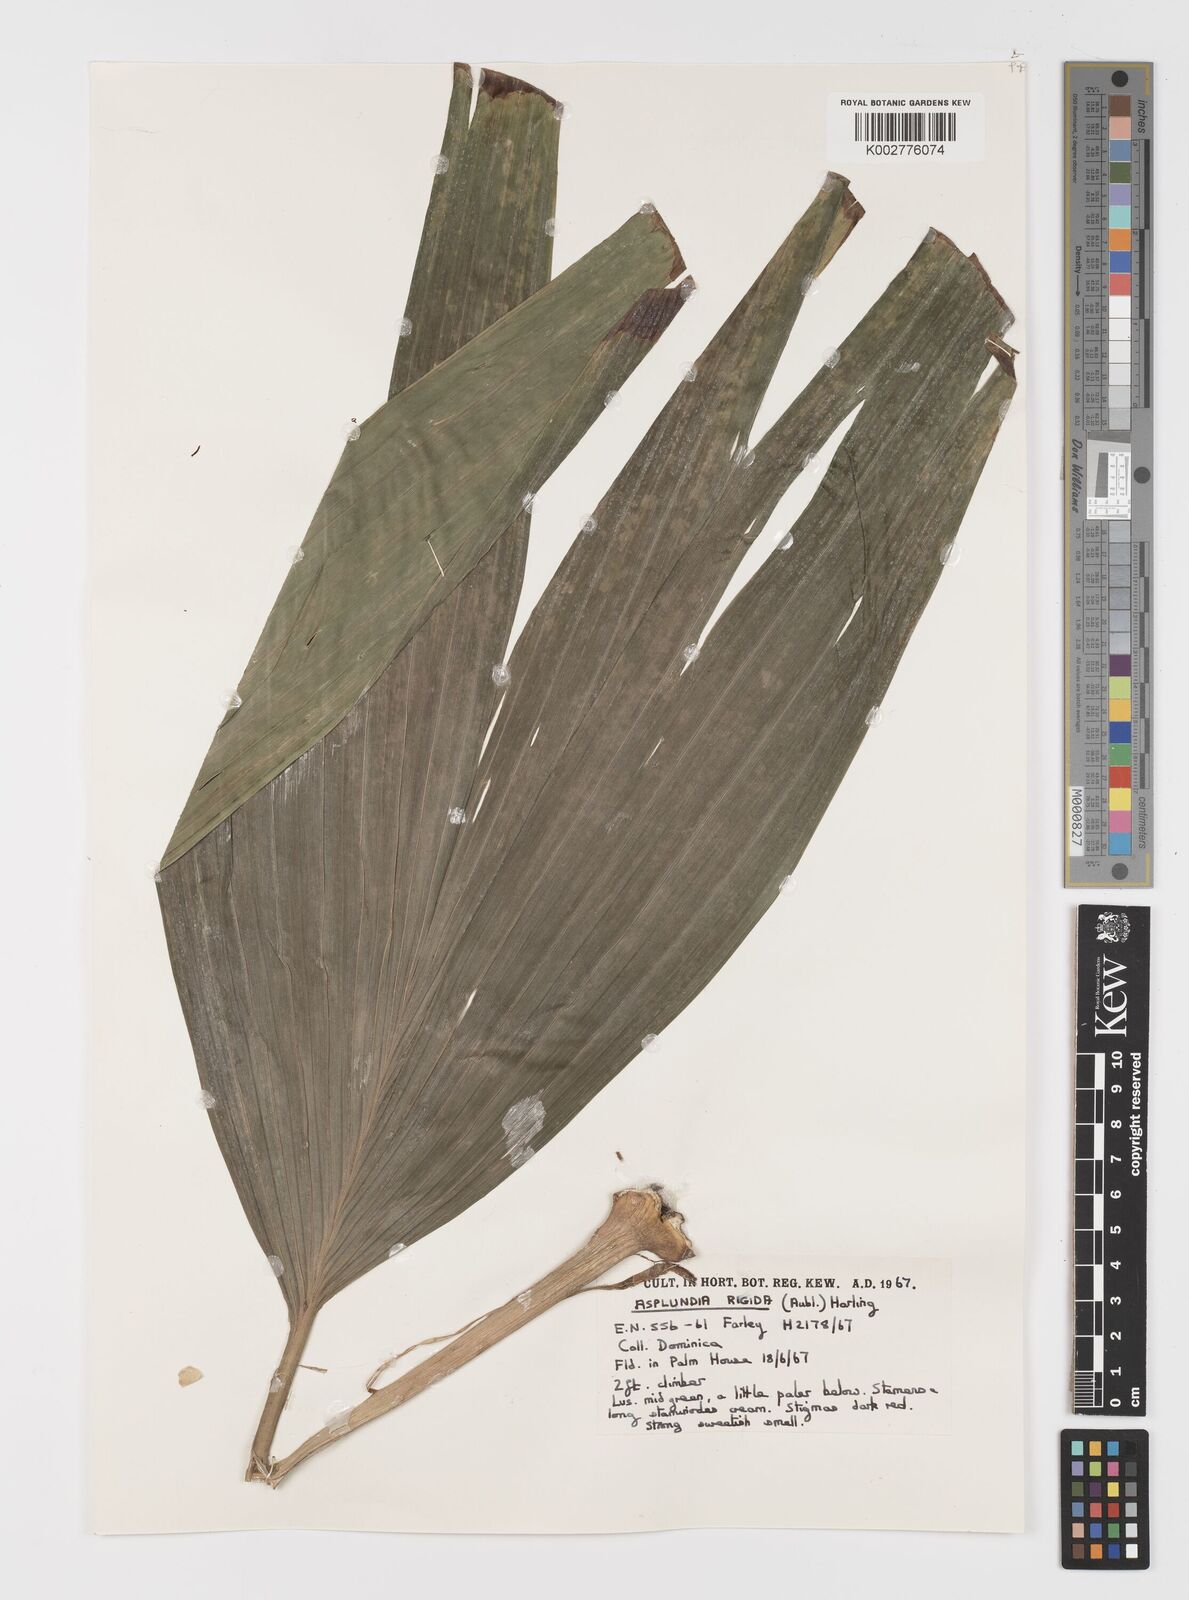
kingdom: Plantae
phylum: Tracheophyta
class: Liliopsida
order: Pandanales
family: Cyclanthaceae
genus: Asplundia
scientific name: Asplundia rigida
